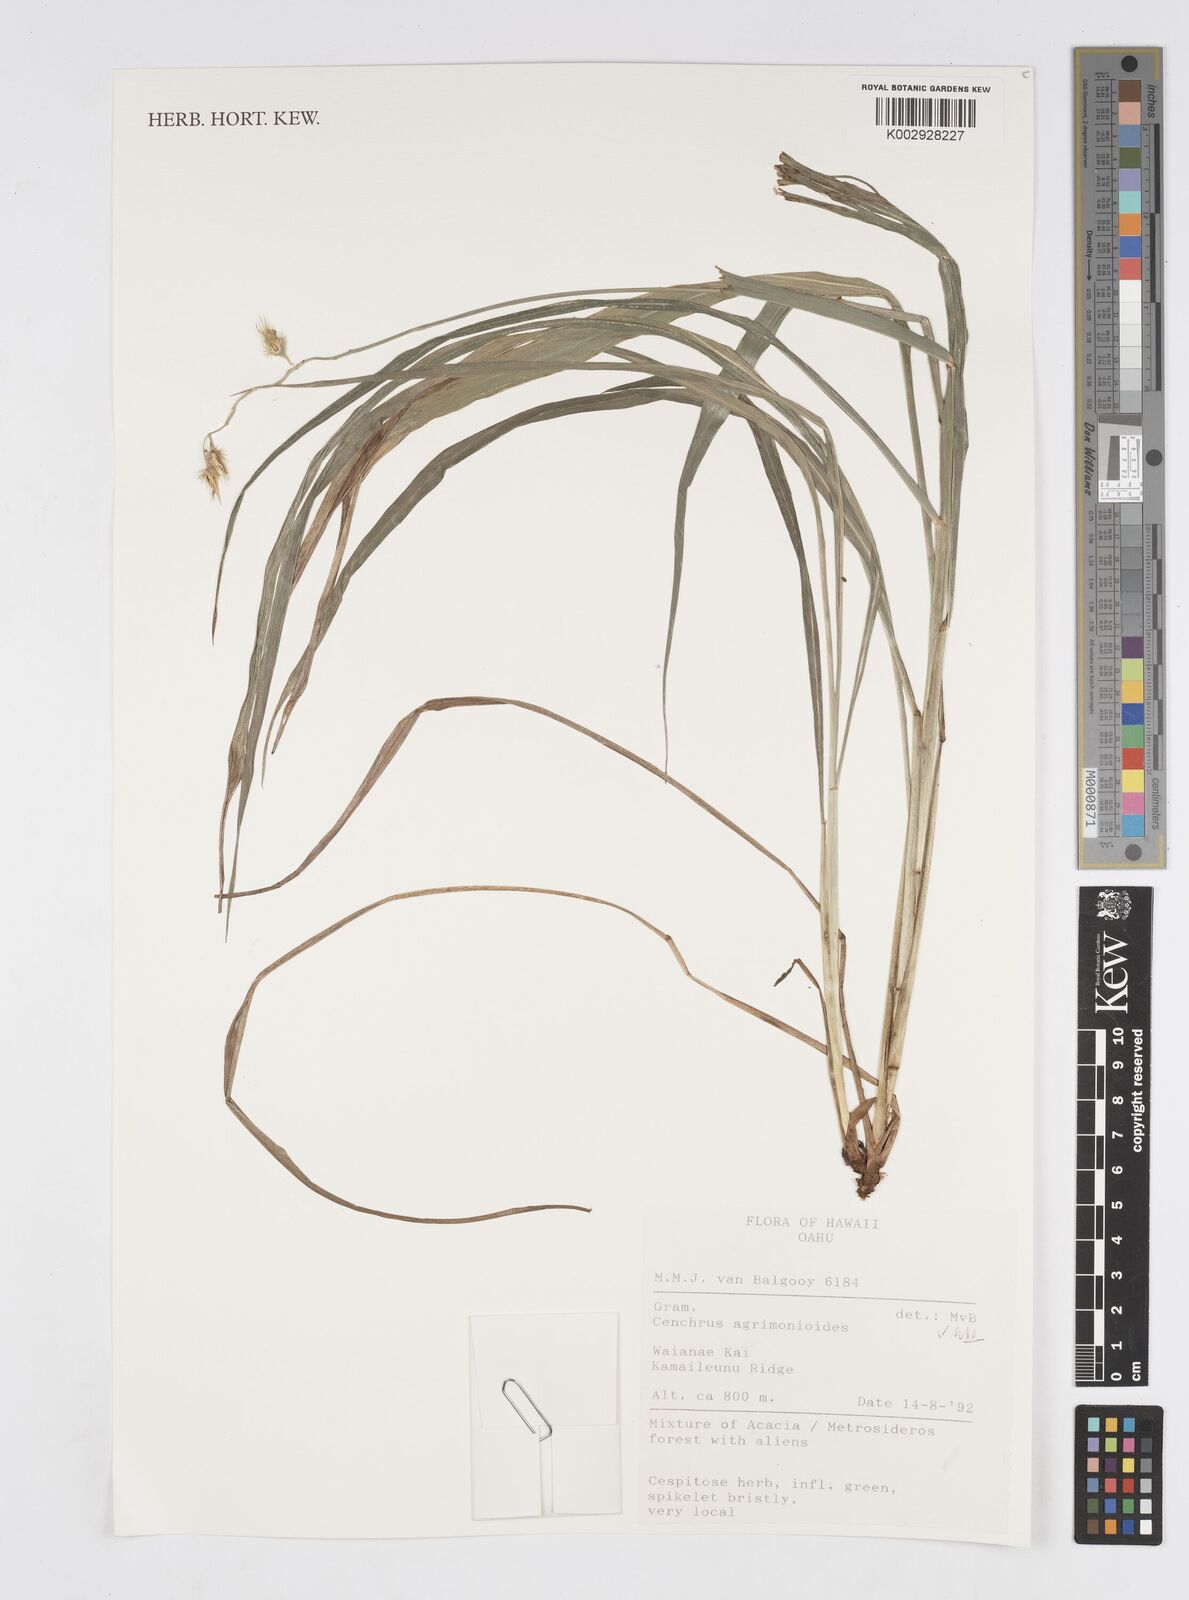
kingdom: Plantae
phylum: Tracheophyta
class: Liliopsida
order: Poales
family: Poaceae
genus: Cenchrus
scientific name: Cenchrus agrimonioides
